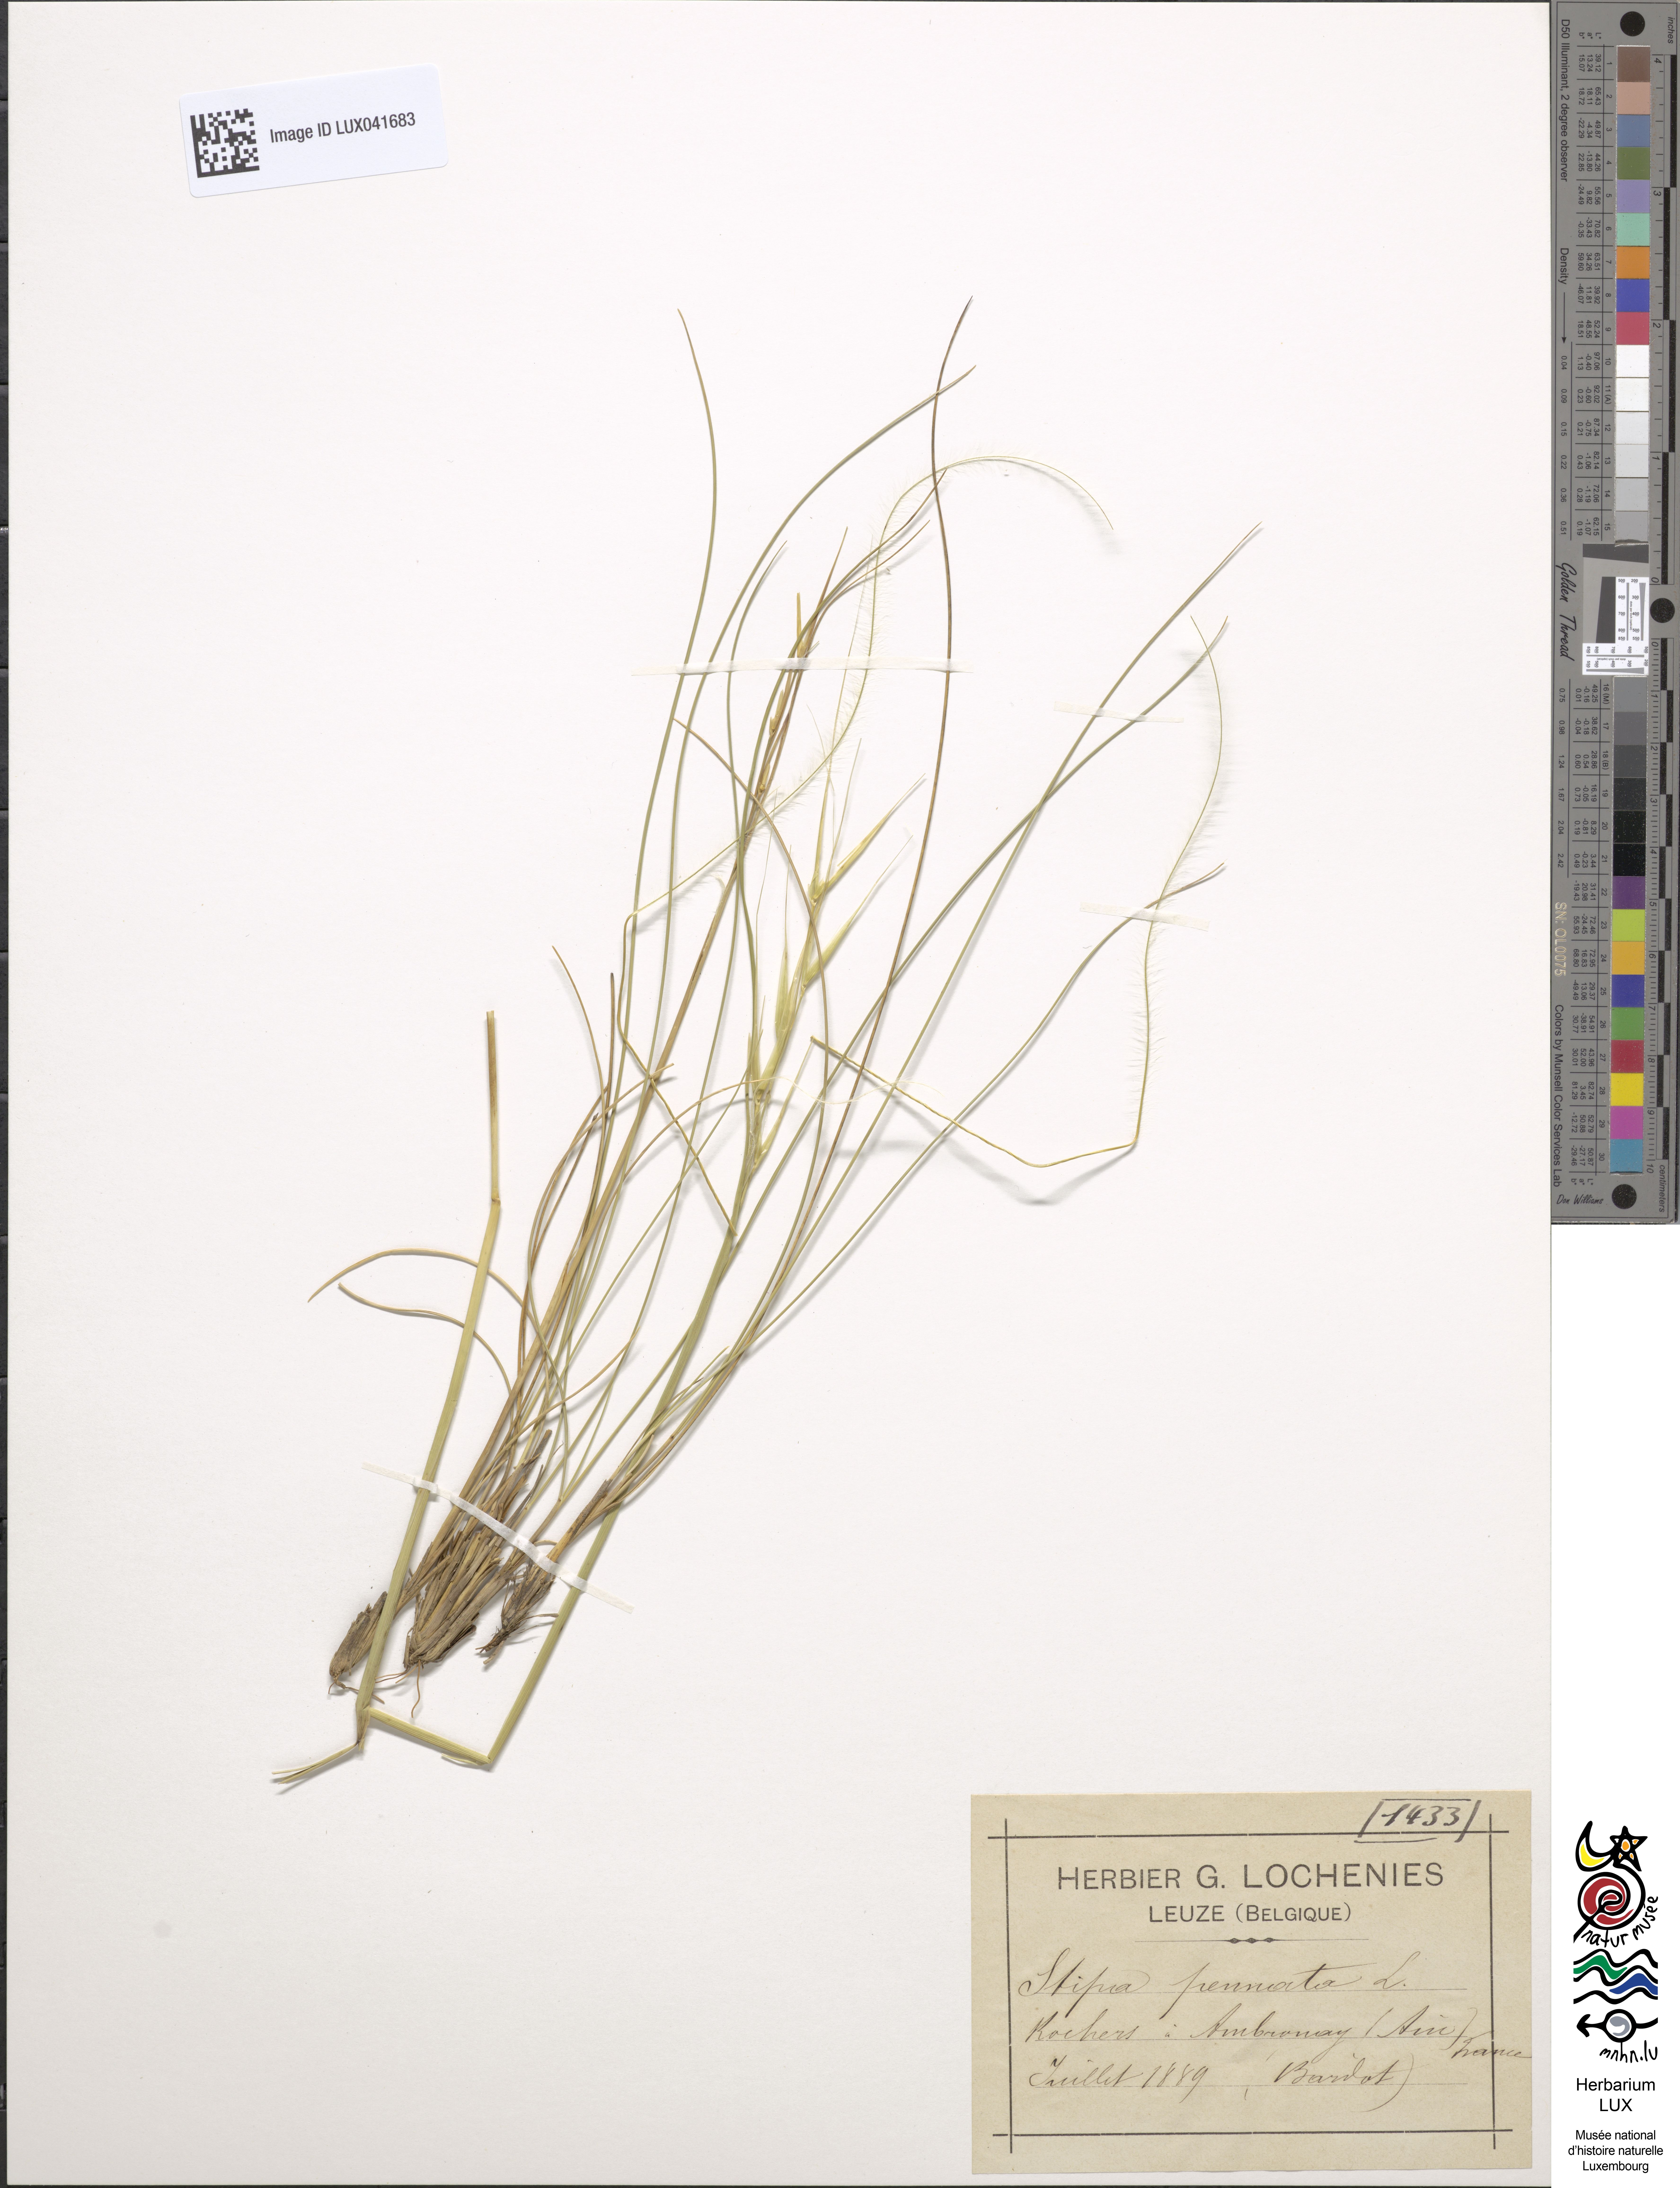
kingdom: Plantae
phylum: Tracheophyta
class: Liliopsida
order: Poales
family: Poaceae
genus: Stipa
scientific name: Stipa pennata
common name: European feather grass
